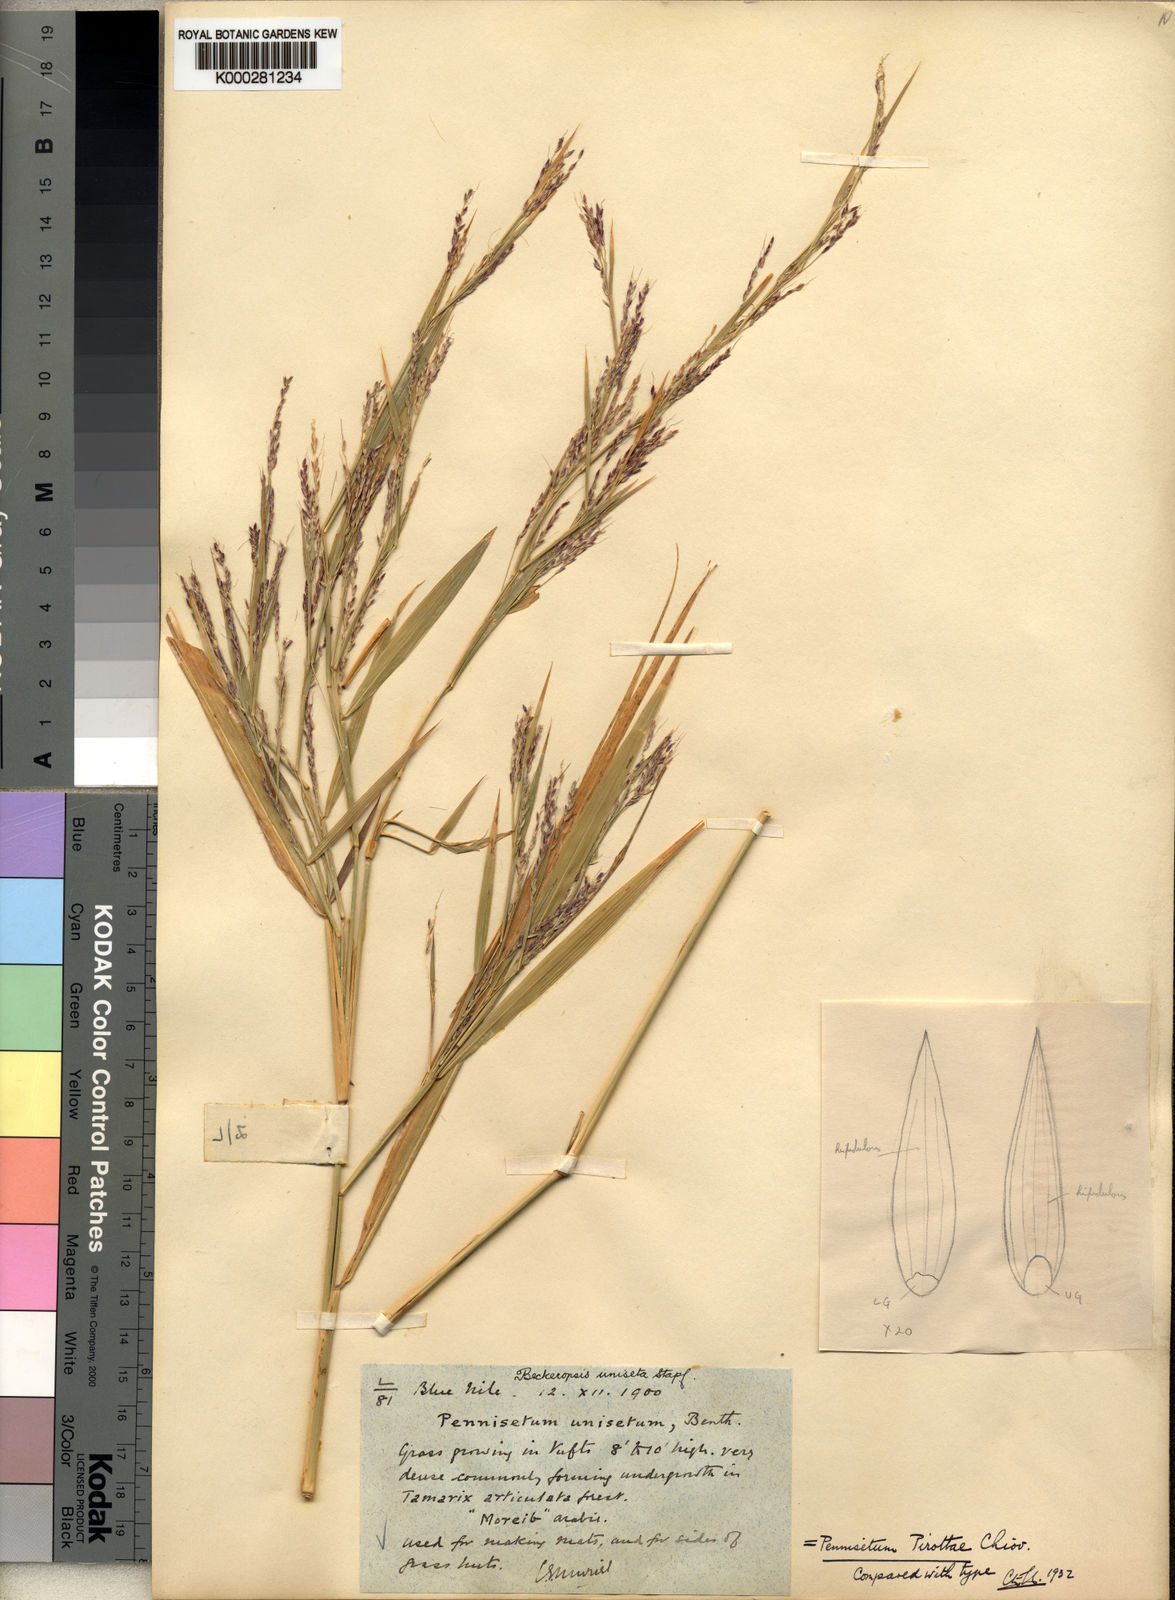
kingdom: Plantae
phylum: Tracheophyta
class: Liliopsida
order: Poales
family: Poaceae
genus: Cenchrus
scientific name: Cenchrus pirottae
